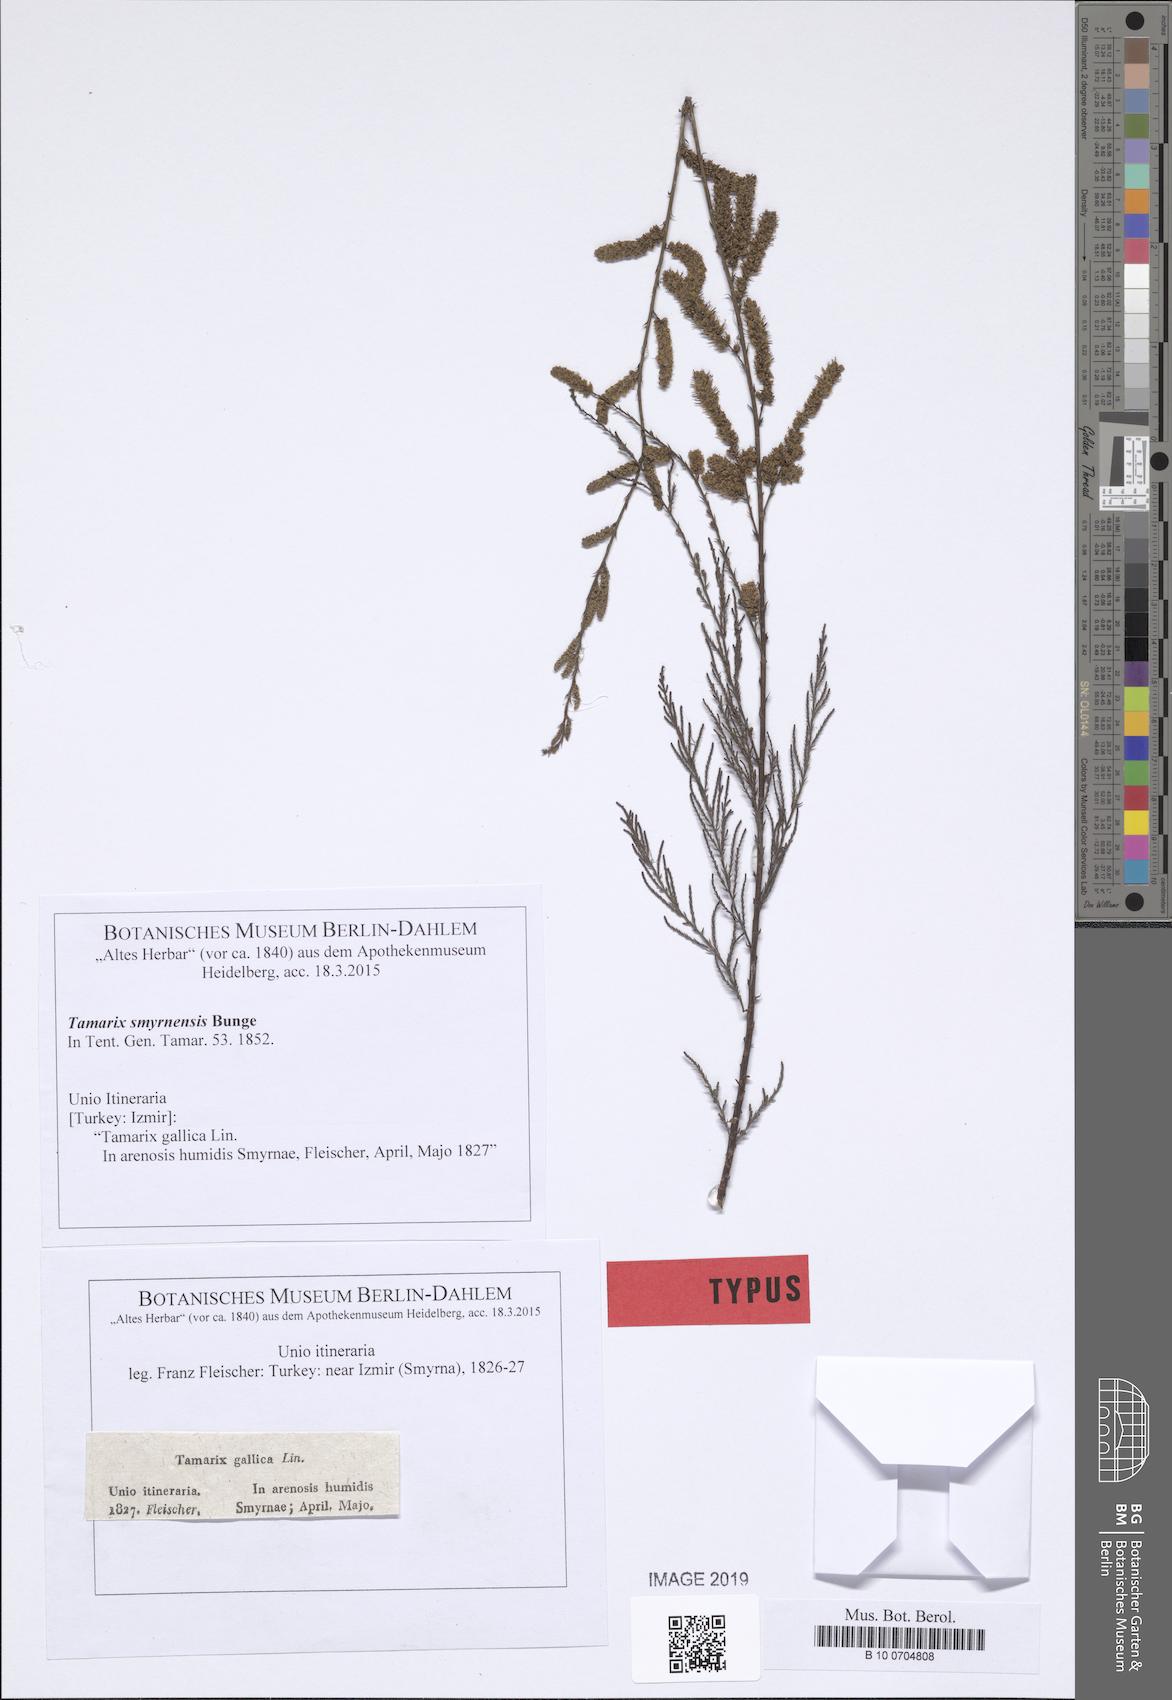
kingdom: Plantae
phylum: Tracheophyta
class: Magnoliopsida
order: Caryophyllales
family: Tamaricaceae
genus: Tamarix
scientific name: Tamarix smyrnensis
